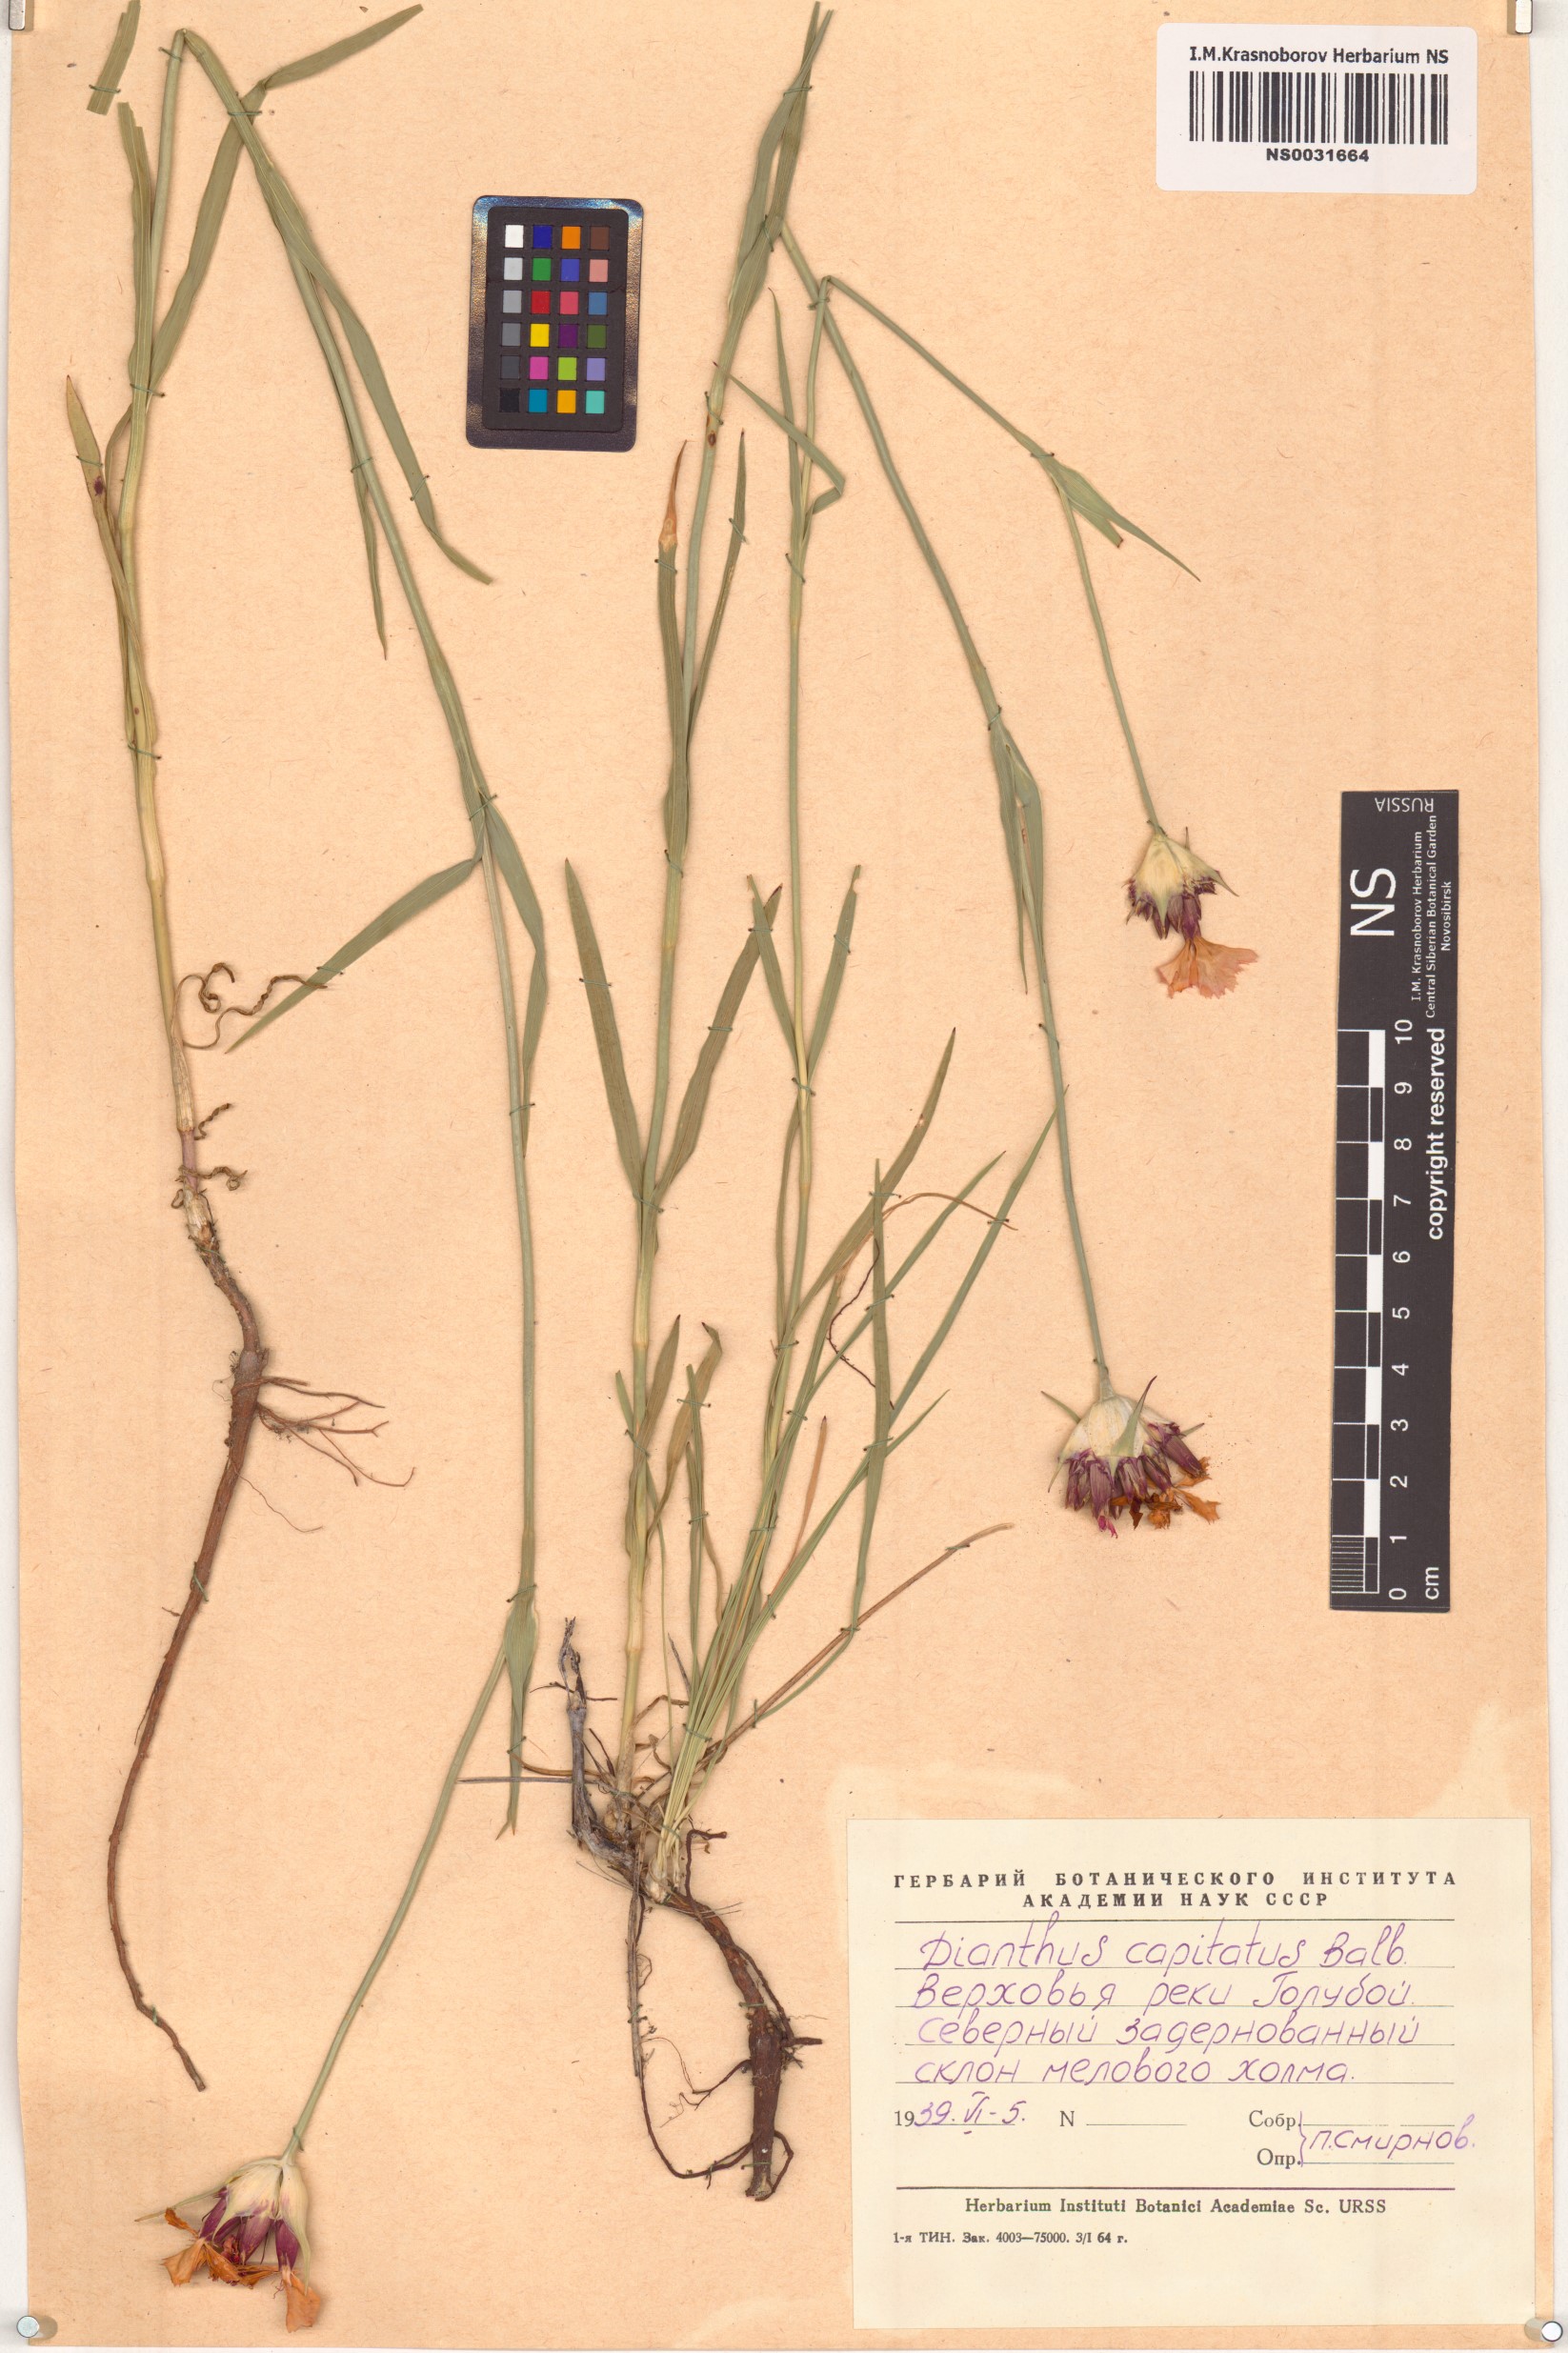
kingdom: Plantae
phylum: Tracheophyta
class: Magnoliopsida
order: Caryophyllales
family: Caryophyllaceae
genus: Dianthus
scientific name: Dianthus capitatus
